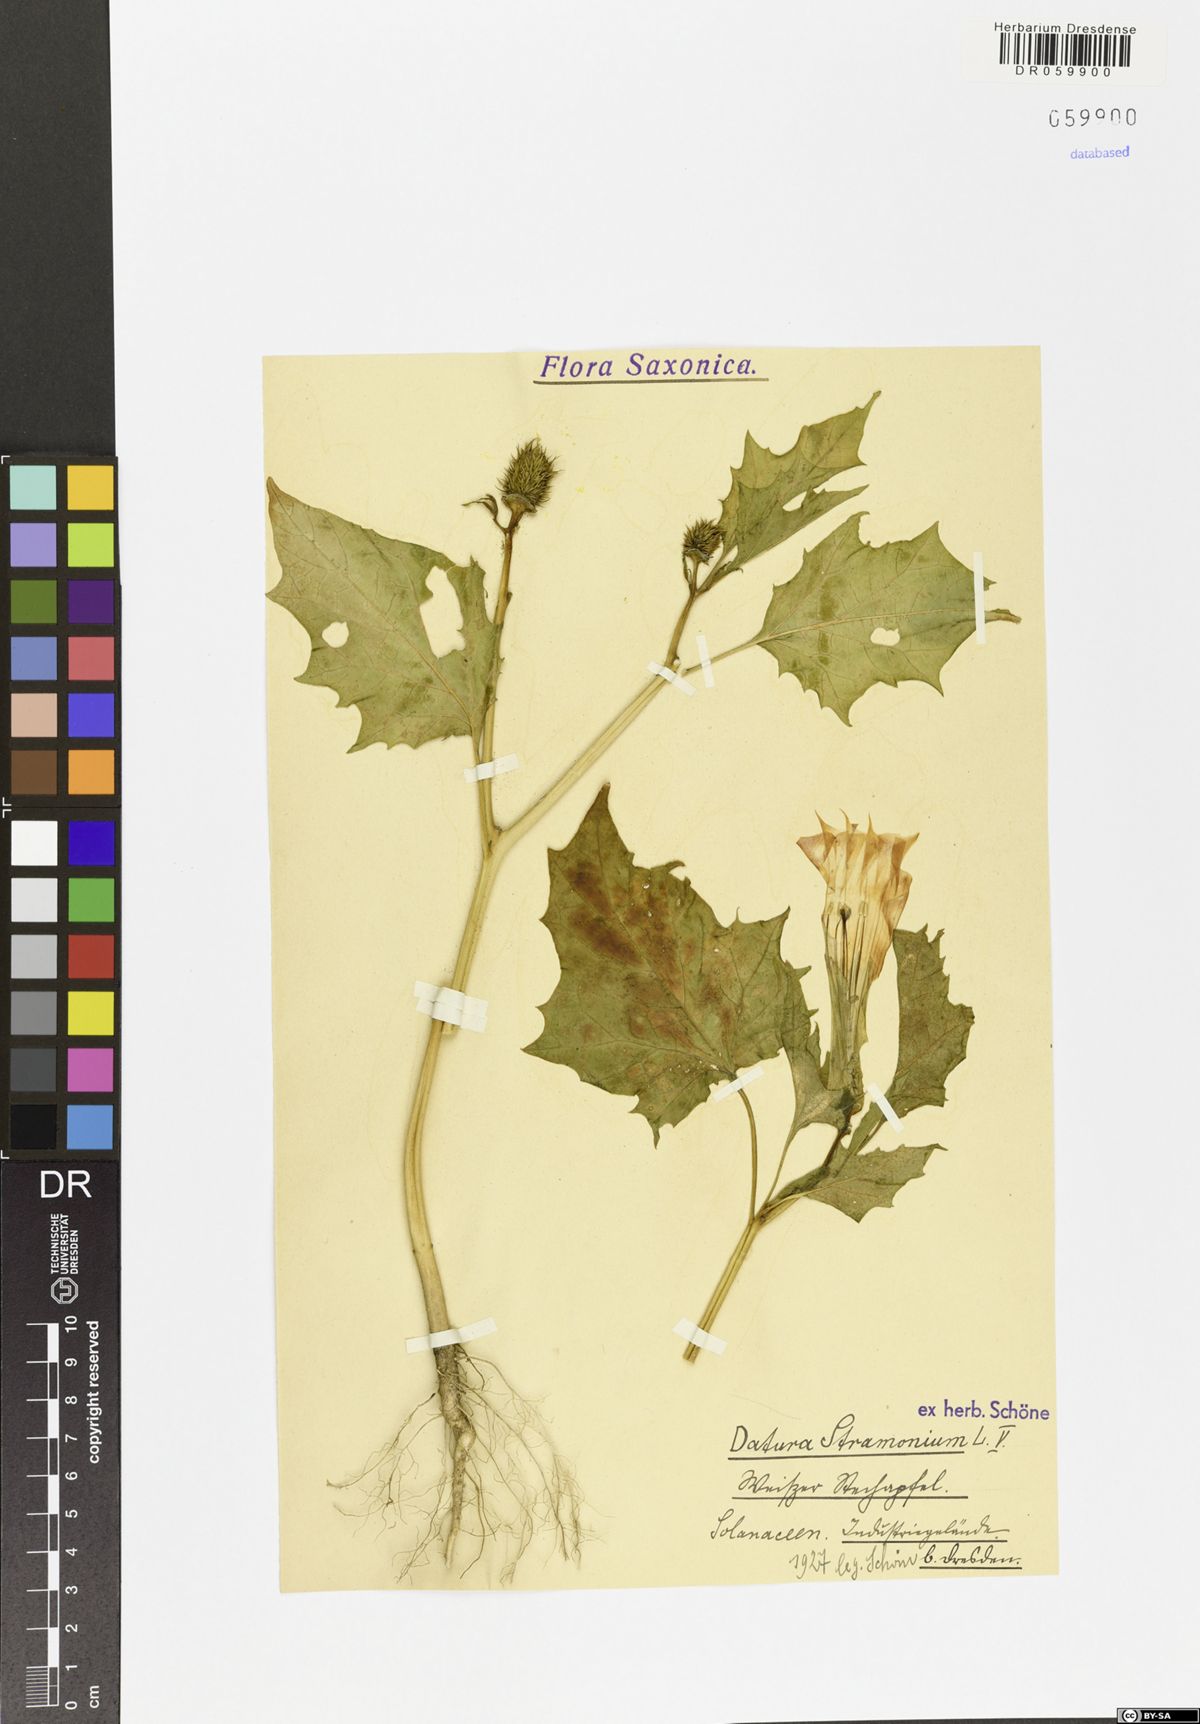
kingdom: Plantae
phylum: Tracheophyta
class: Magnoliopsida
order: Solanales
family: Solanaceae
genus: Datura
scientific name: Datura stramonium
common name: Thorn-apple
